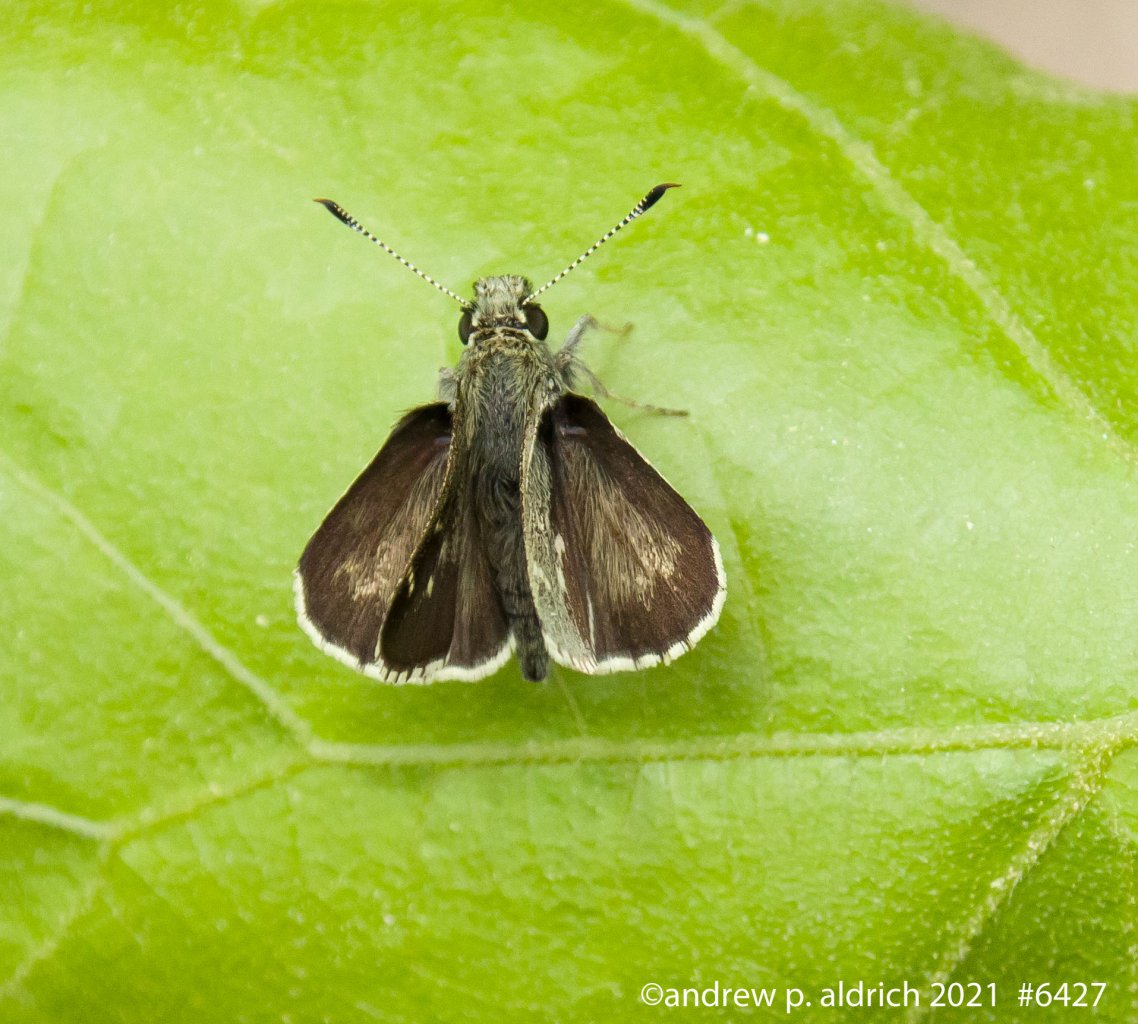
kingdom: Animalia
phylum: Arthropoda
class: Insecta
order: Lepidoptera
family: Hesperiidae
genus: Mastor
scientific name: Mastor hegon
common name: Pepper and Salt Skipper
